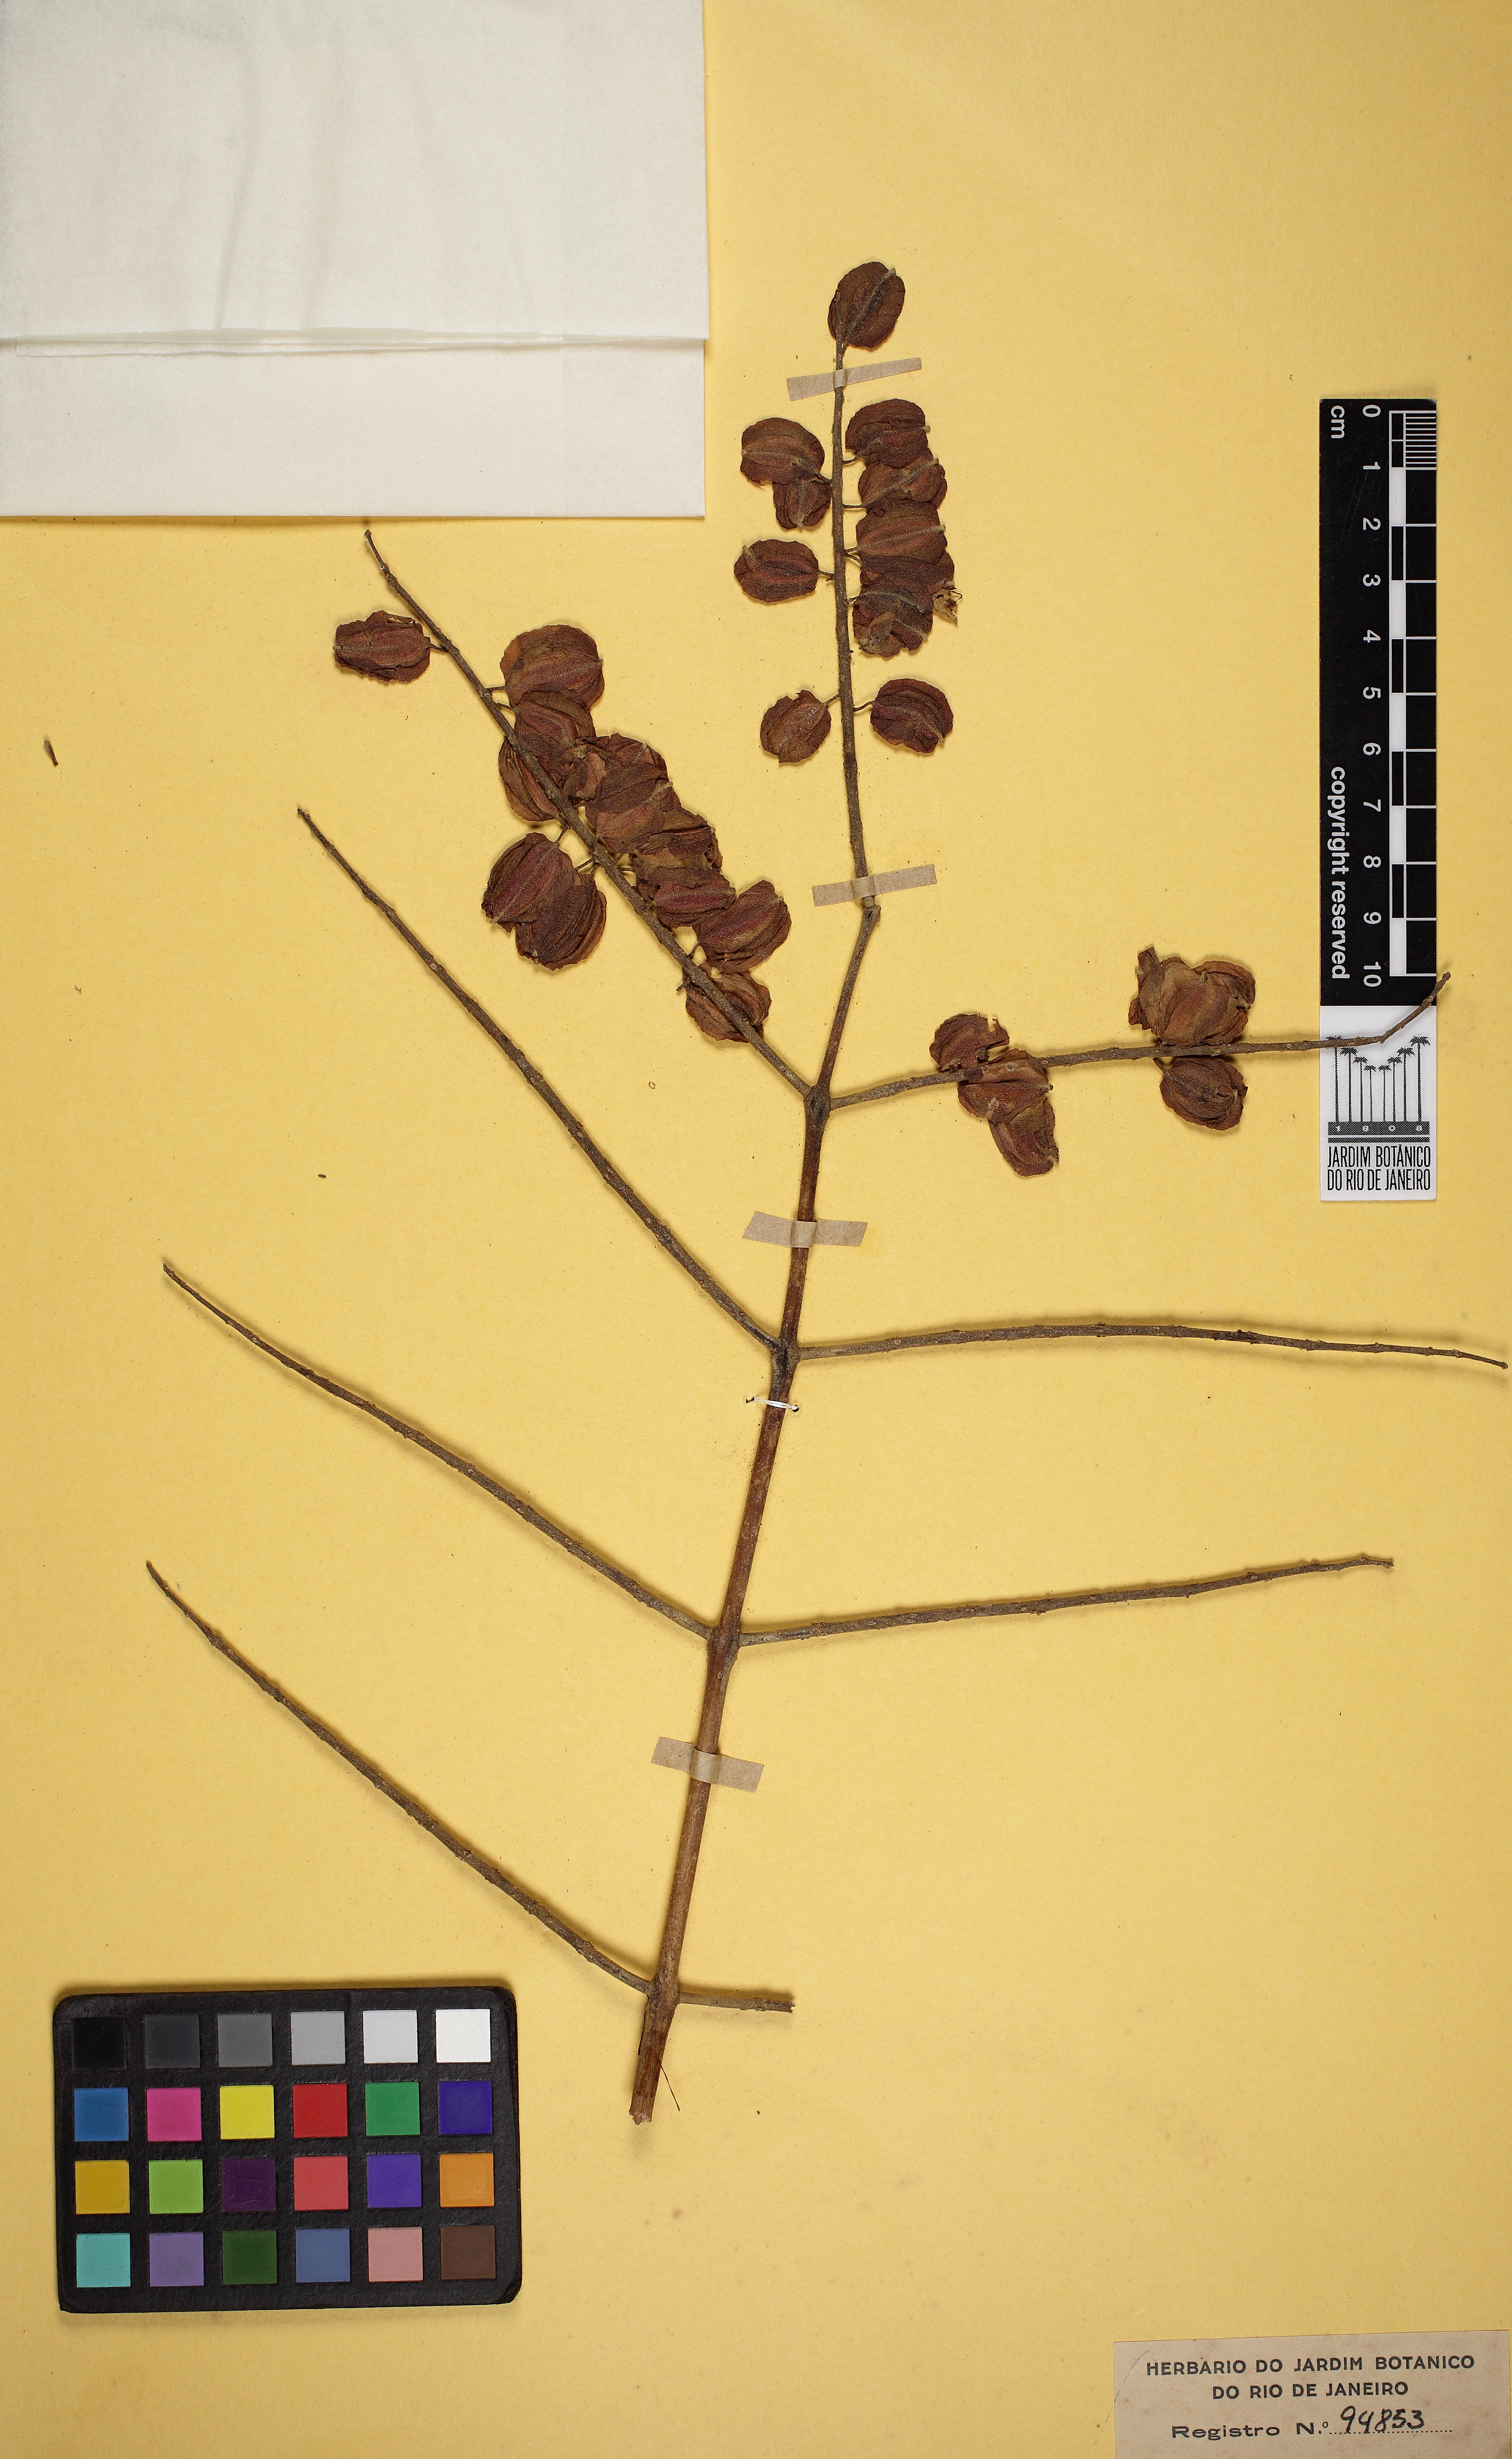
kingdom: Plantae
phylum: Tracheophyta
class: Magnoliopsida
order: Myrtales
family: Combretaceae
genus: Combretum
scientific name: Combretum lanceolatum
